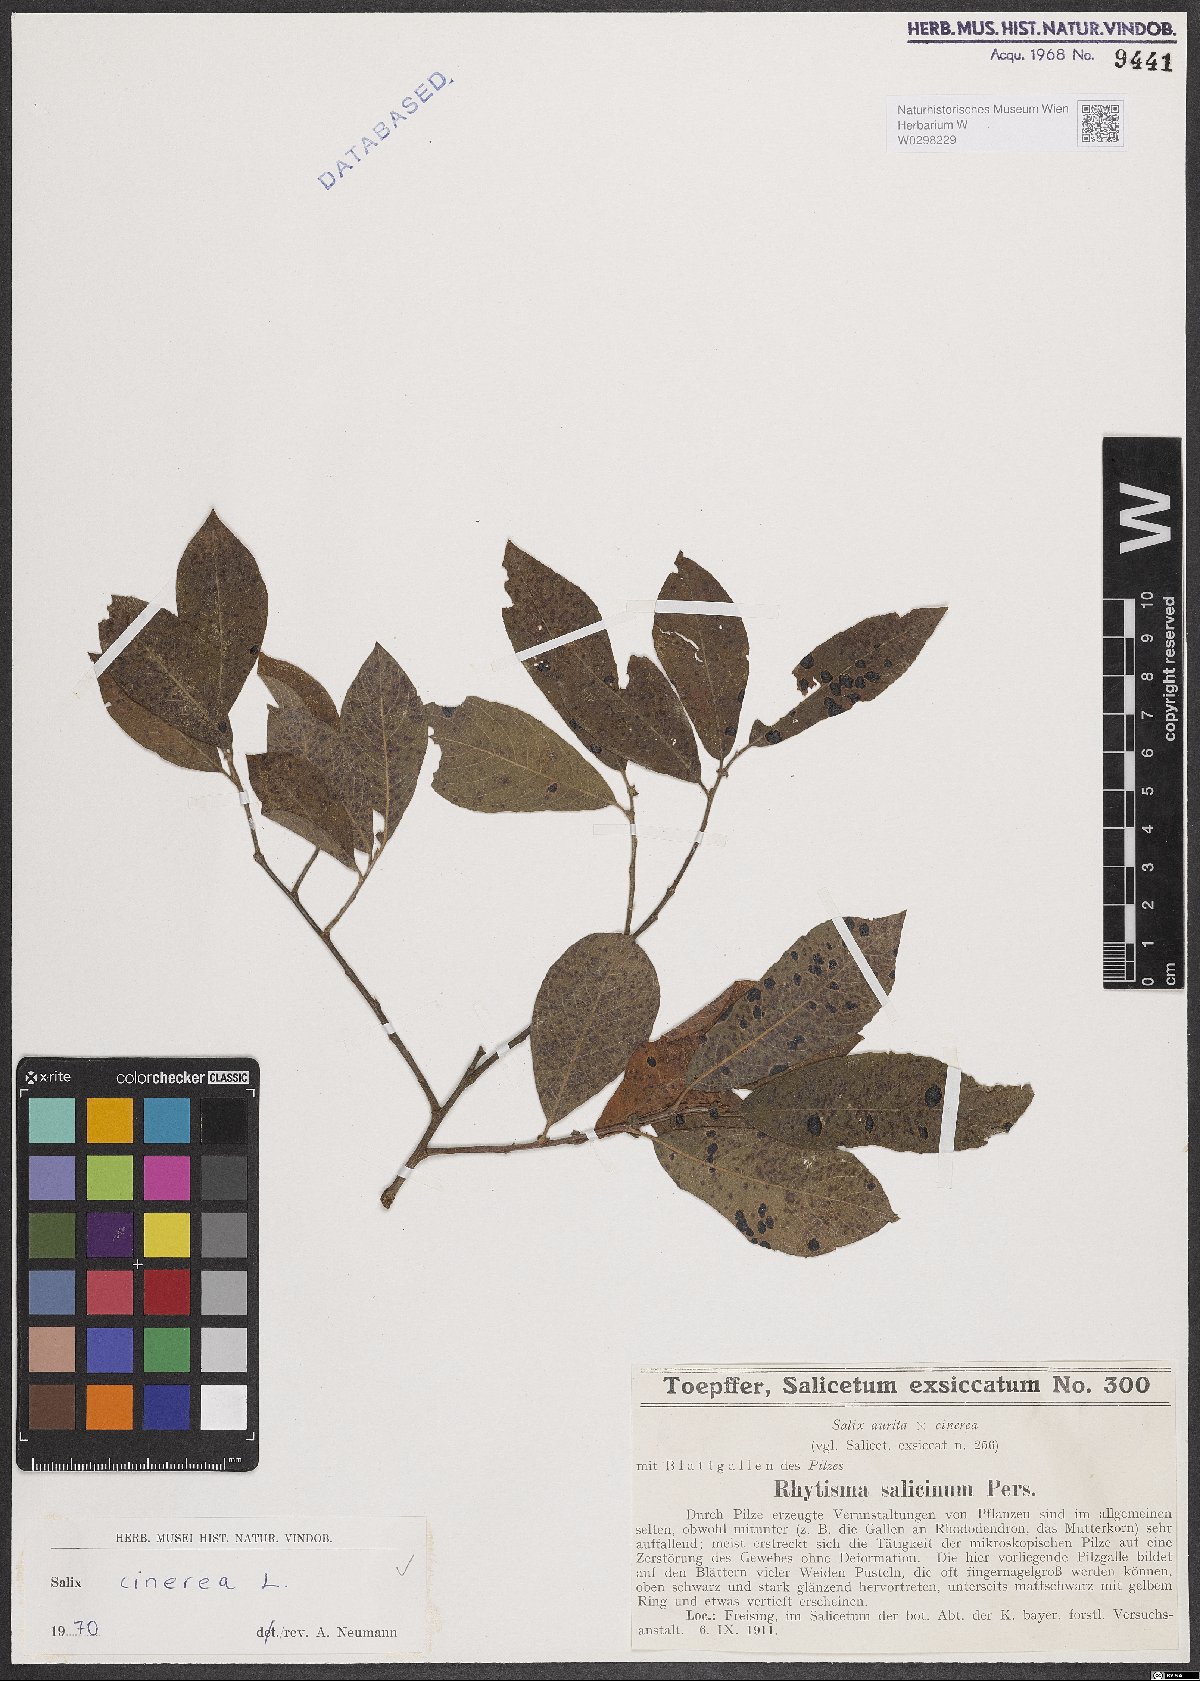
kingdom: Plantae
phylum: Tracheophyta
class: Magnoliopsida
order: Malpighiales
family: Salicaceae
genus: Salix
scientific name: Salix cinerea
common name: Common sallow
